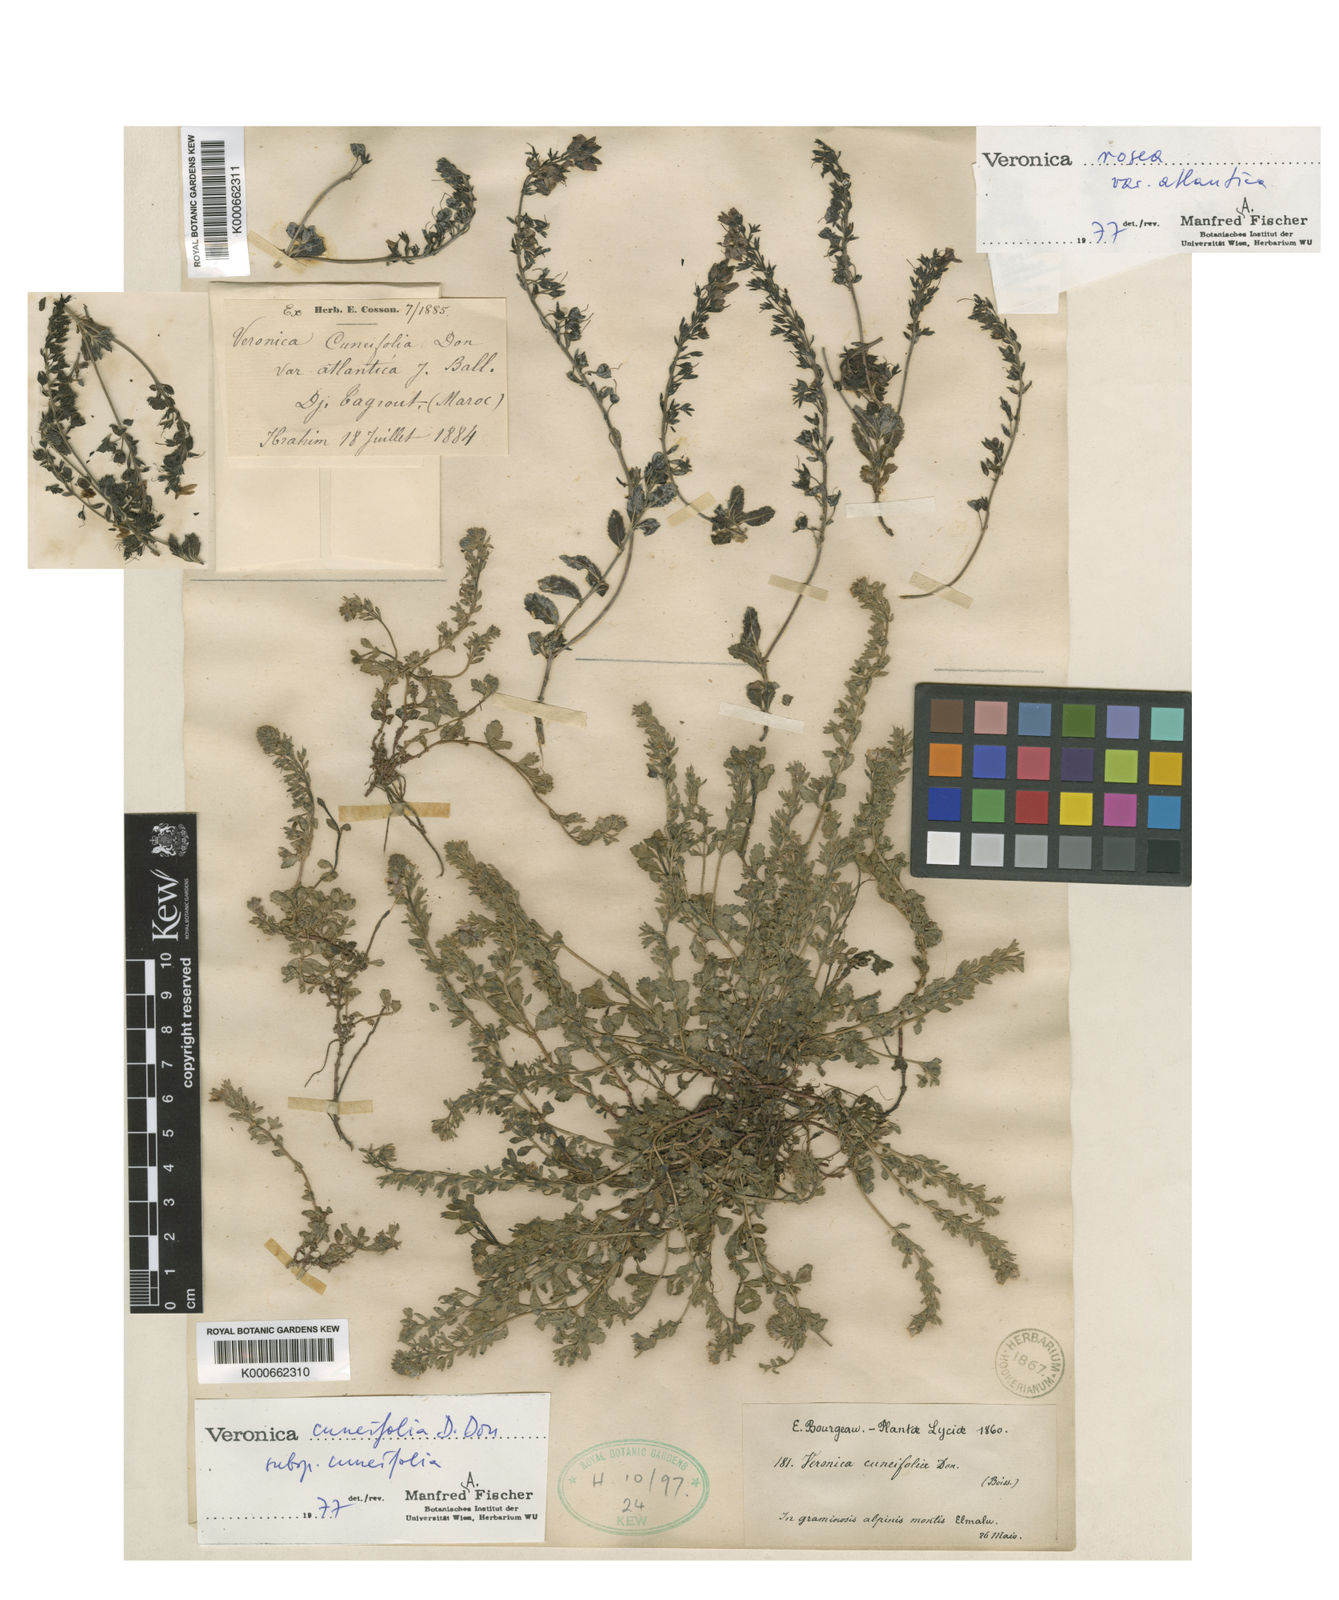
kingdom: Plantae
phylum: Tracheophyta
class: Magnoliopsida
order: Lamiales
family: Plantaginaceae
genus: Veronica
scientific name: Veronica cuneifolia
